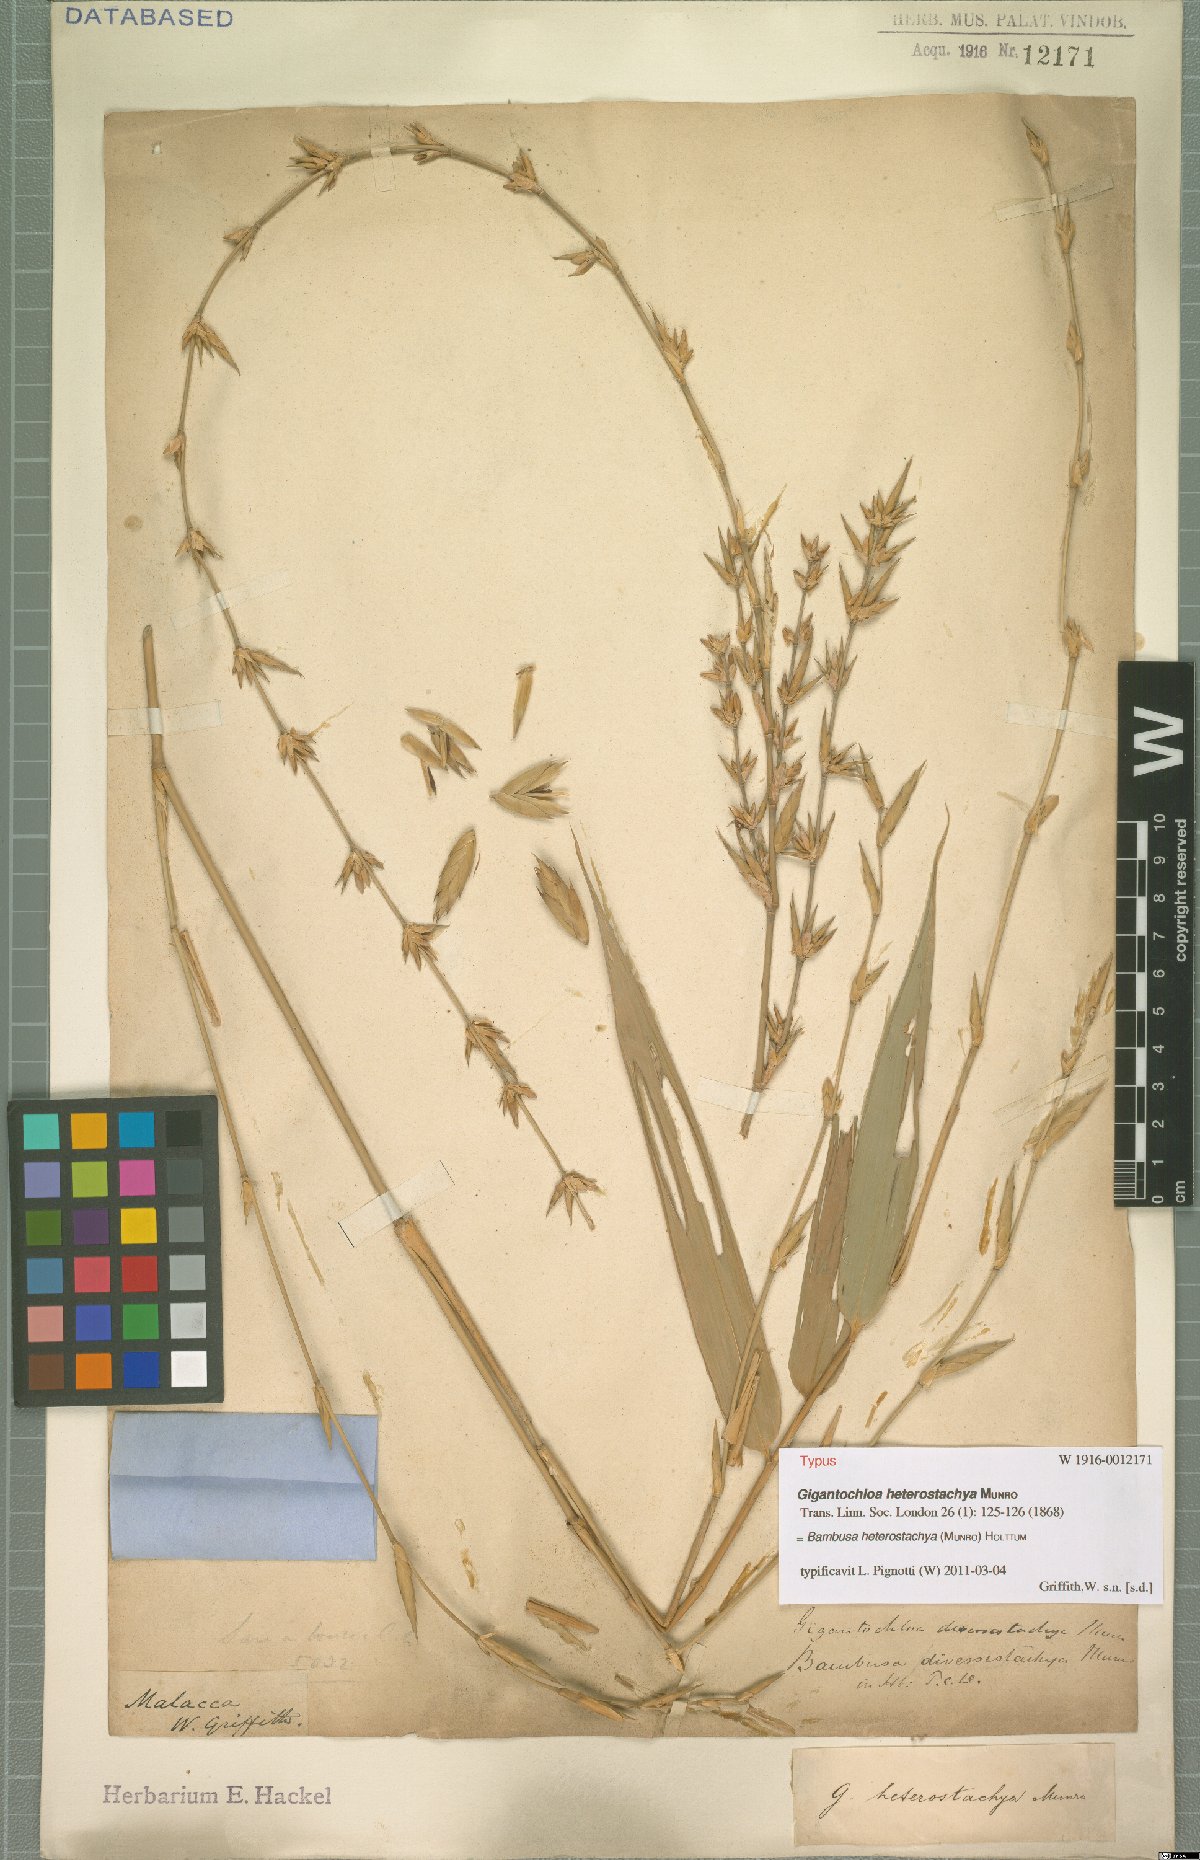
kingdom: Plantae
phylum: Tracheophyta
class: Liliopsida
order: Poales
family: Poaceae
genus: Bambusa
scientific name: Bambusa heterostachya
